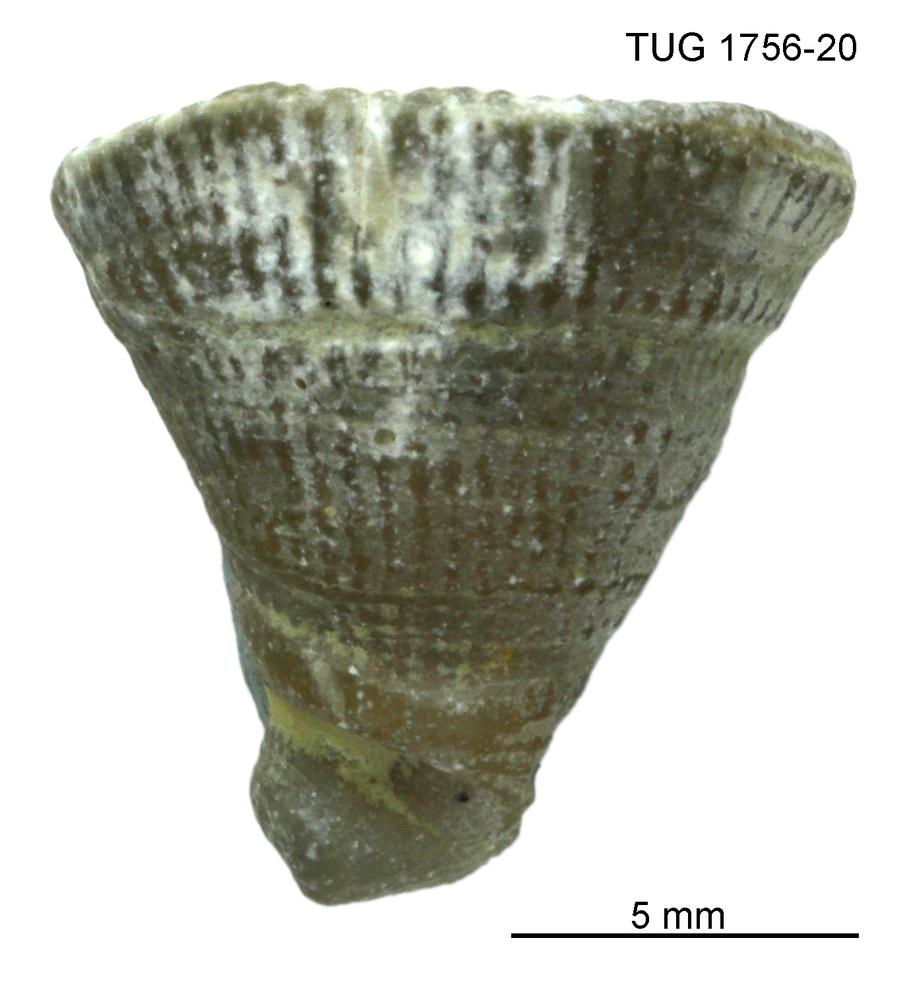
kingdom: Animalia
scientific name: Animalia
